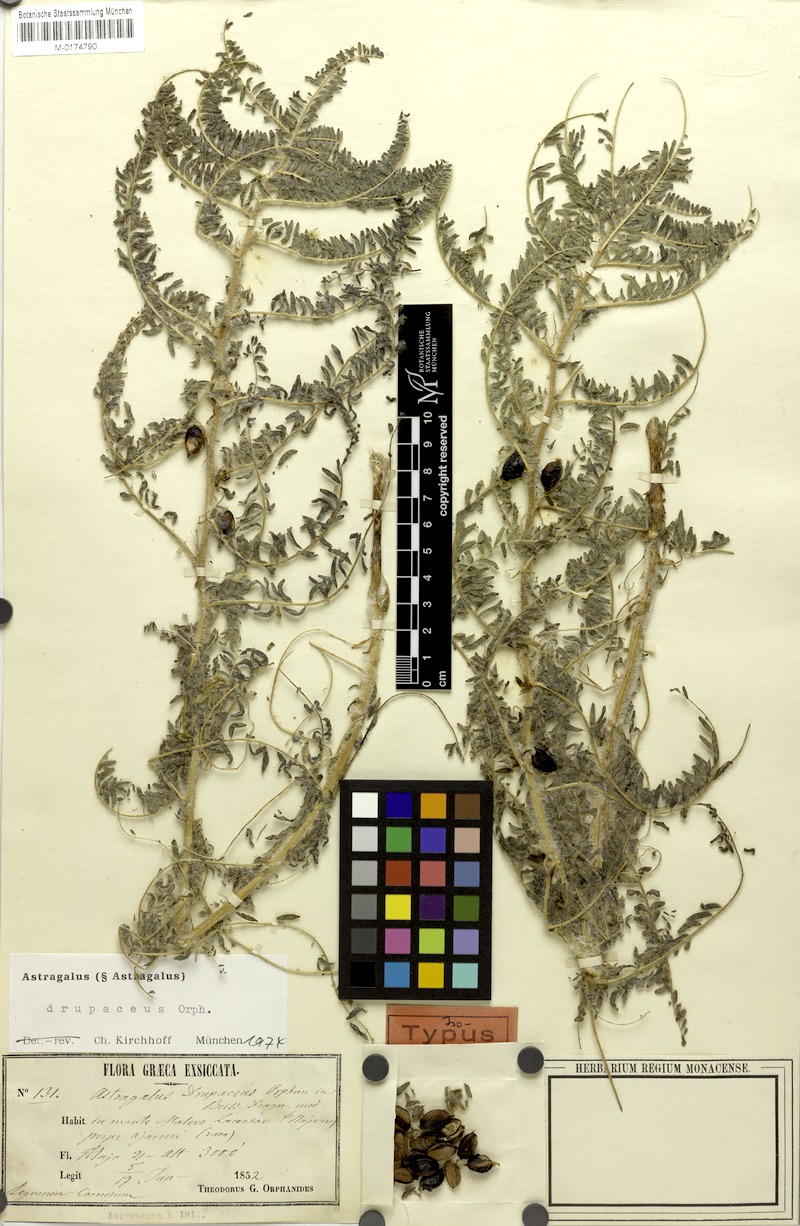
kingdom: Plantae
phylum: Tracheophyta
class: Magnoliopsida
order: Fabales
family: Fabaceae
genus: Astragalus
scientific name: Astragalus drupaceus
